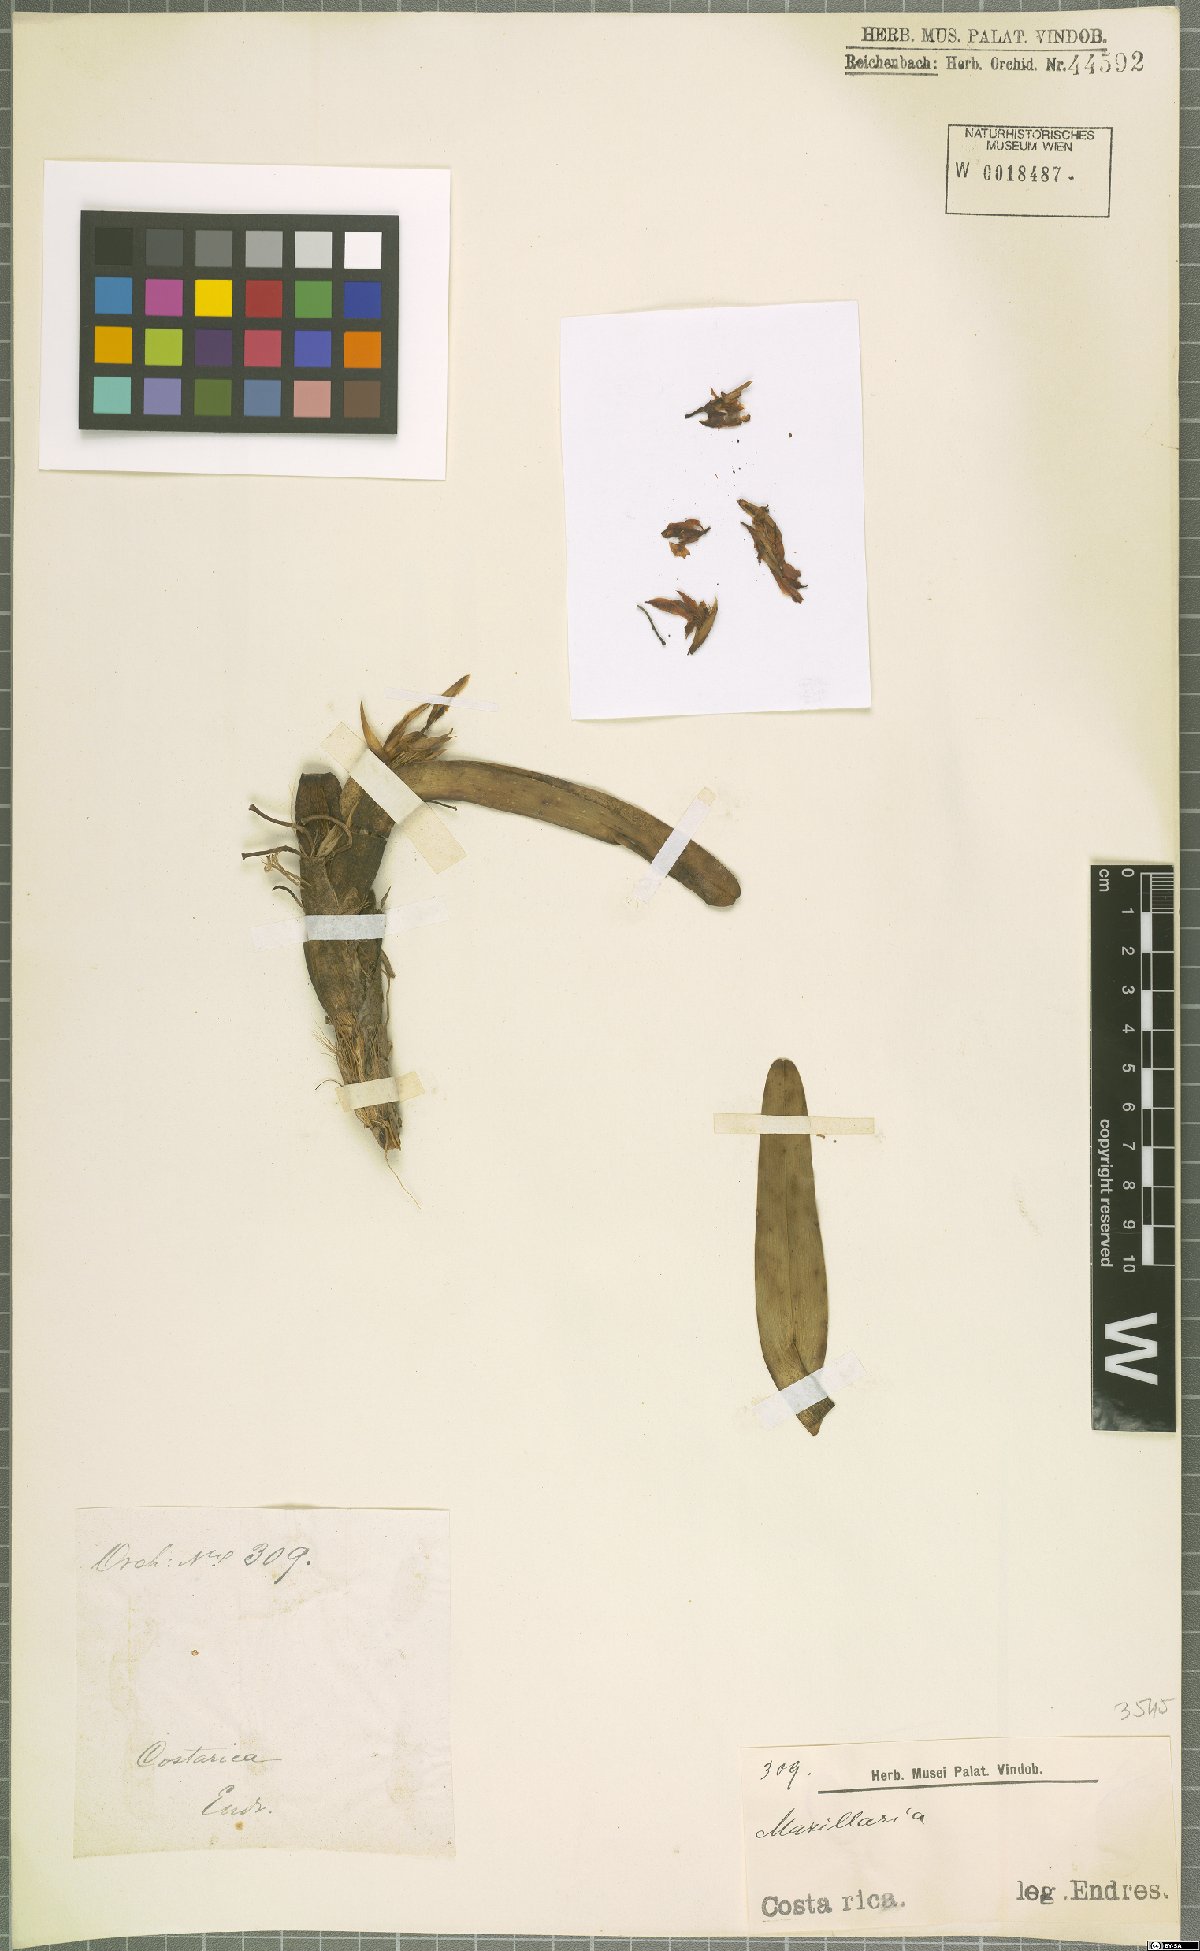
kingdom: Plantae
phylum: Tracheophyta
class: Liliopsida
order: Asparagales
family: Orchidaceae
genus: Maxillaria
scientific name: Maxillaria
